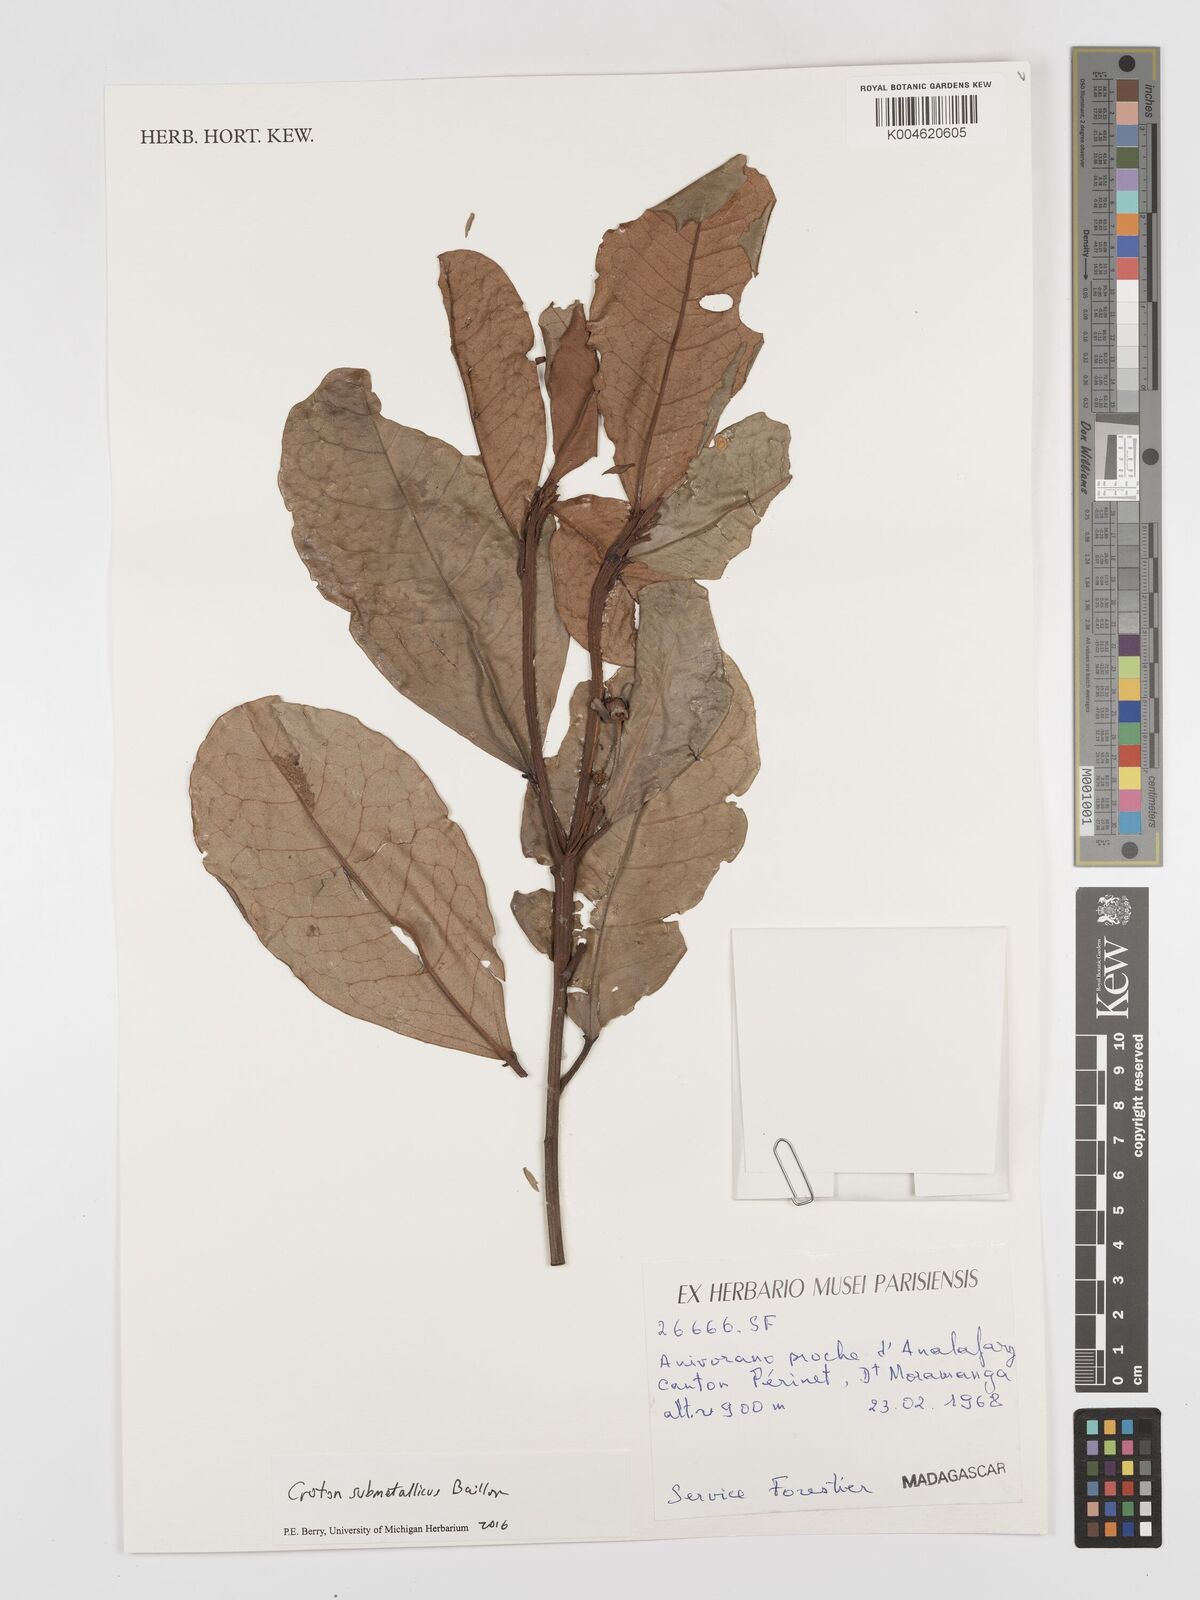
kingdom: Plantae
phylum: Tracheophyta
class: Magnoliopsida
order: Malpighiales
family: Euphorbiaceae
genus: Croton
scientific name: Croton submetallicus
